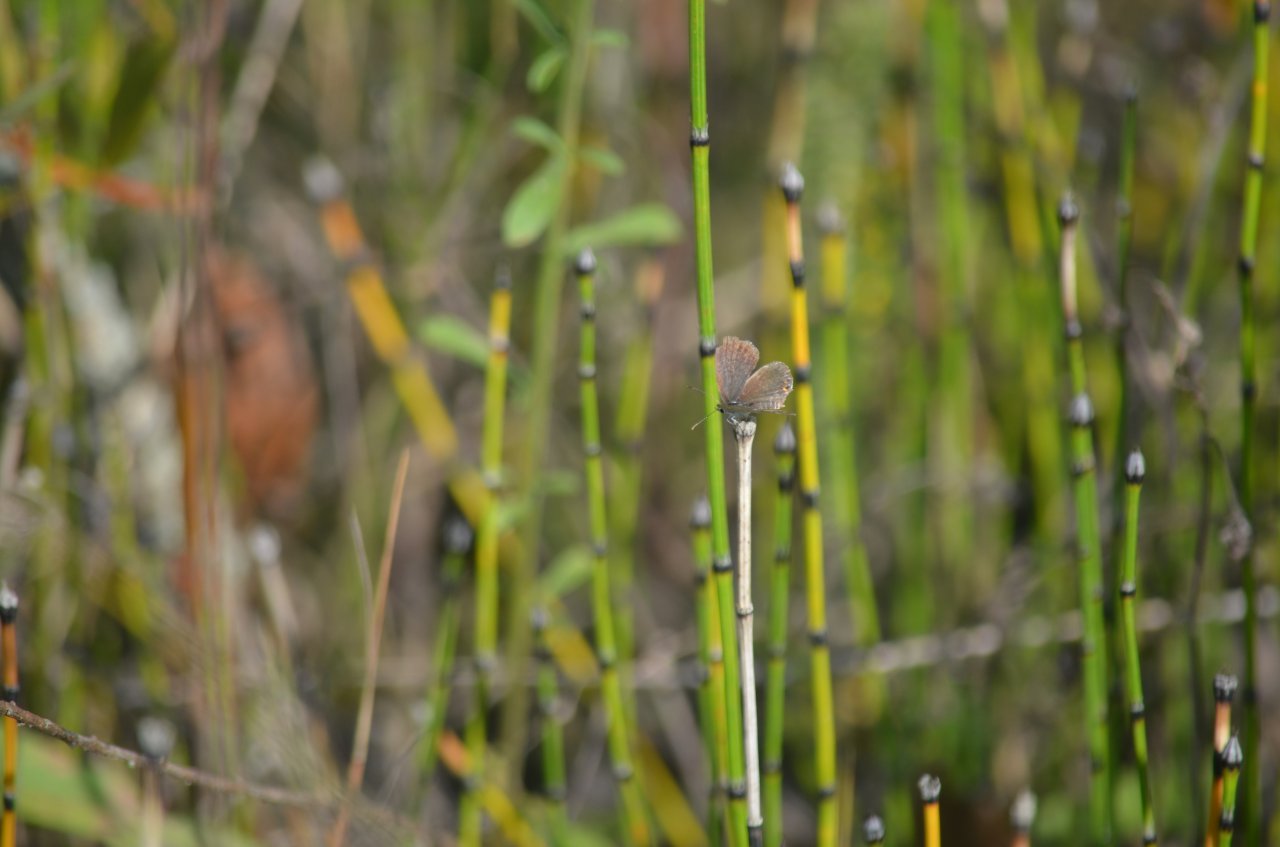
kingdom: Animalia
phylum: Arthropoda
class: Insecta
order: Lepidoptera
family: Lycaenidae
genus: Elkalyce
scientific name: Elkalyce comyntas
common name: Eastern Tailed-Blue
